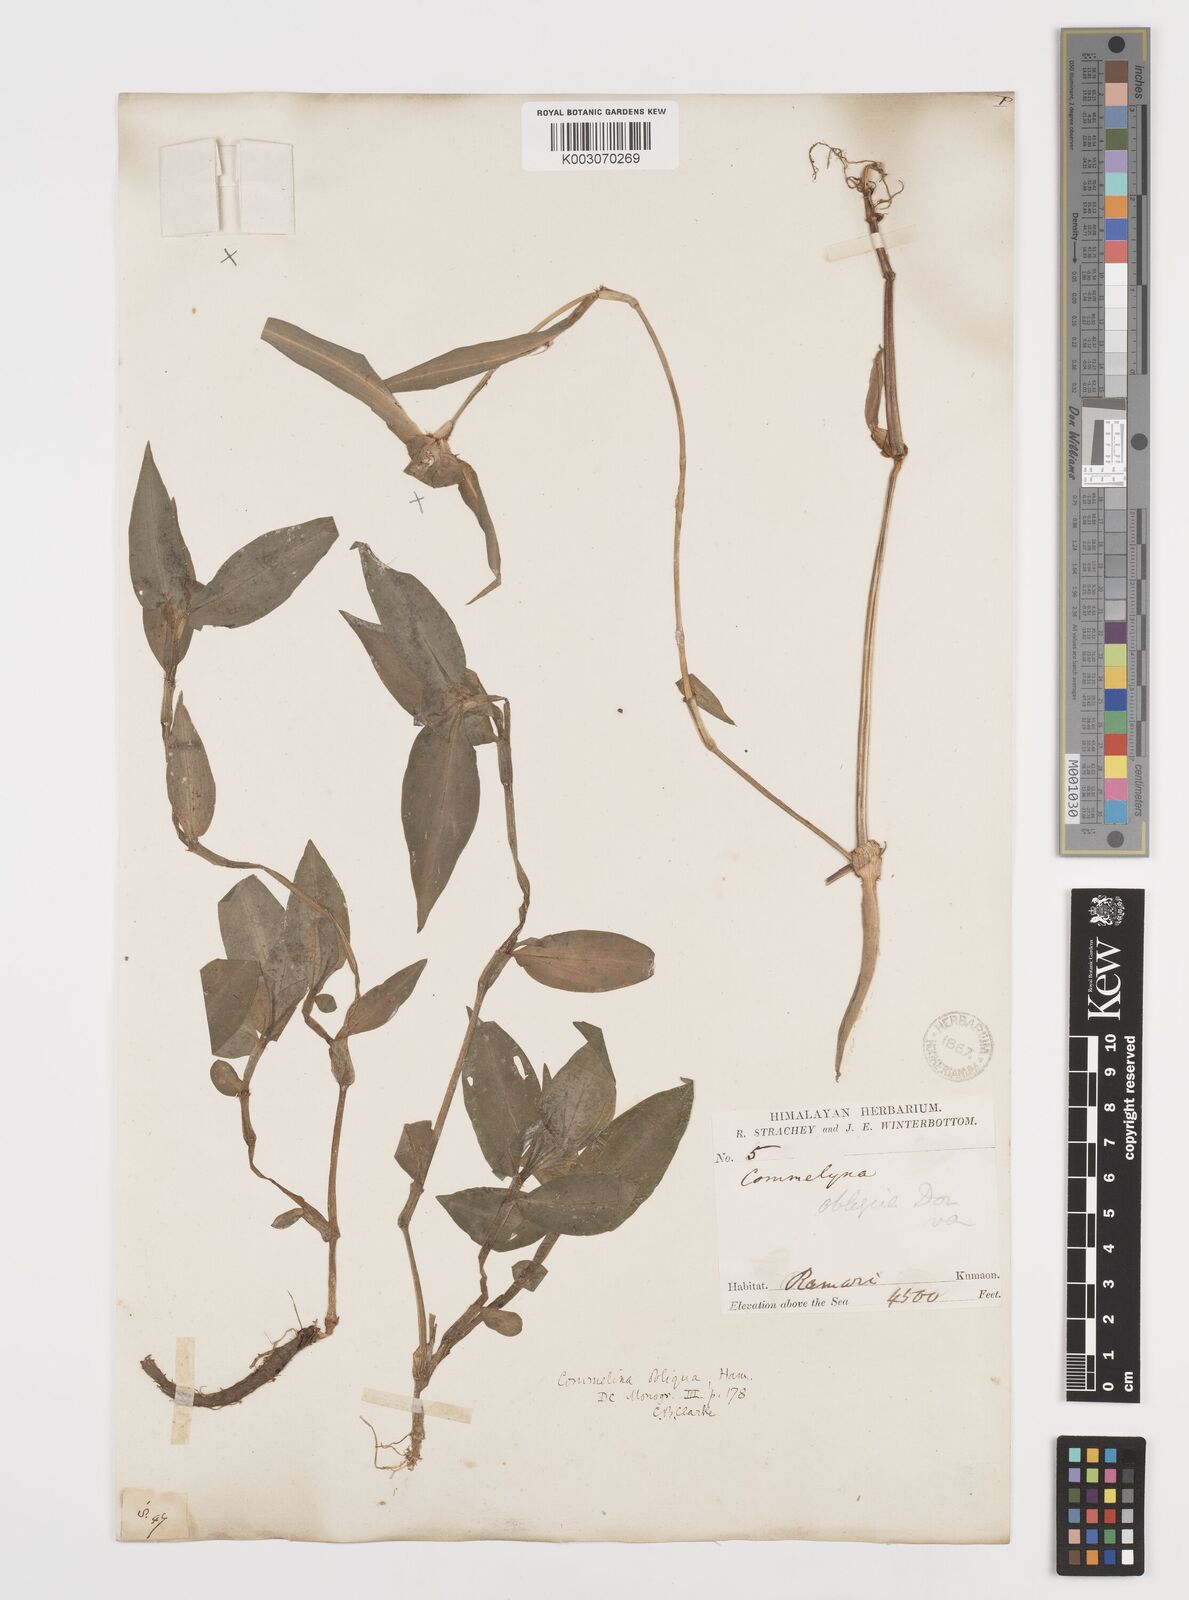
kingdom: Plantae
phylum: Tracheophyta
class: Liliopsida
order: Commelinales
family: Commelinaceae
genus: Commelina
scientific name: Commelina paludosa
